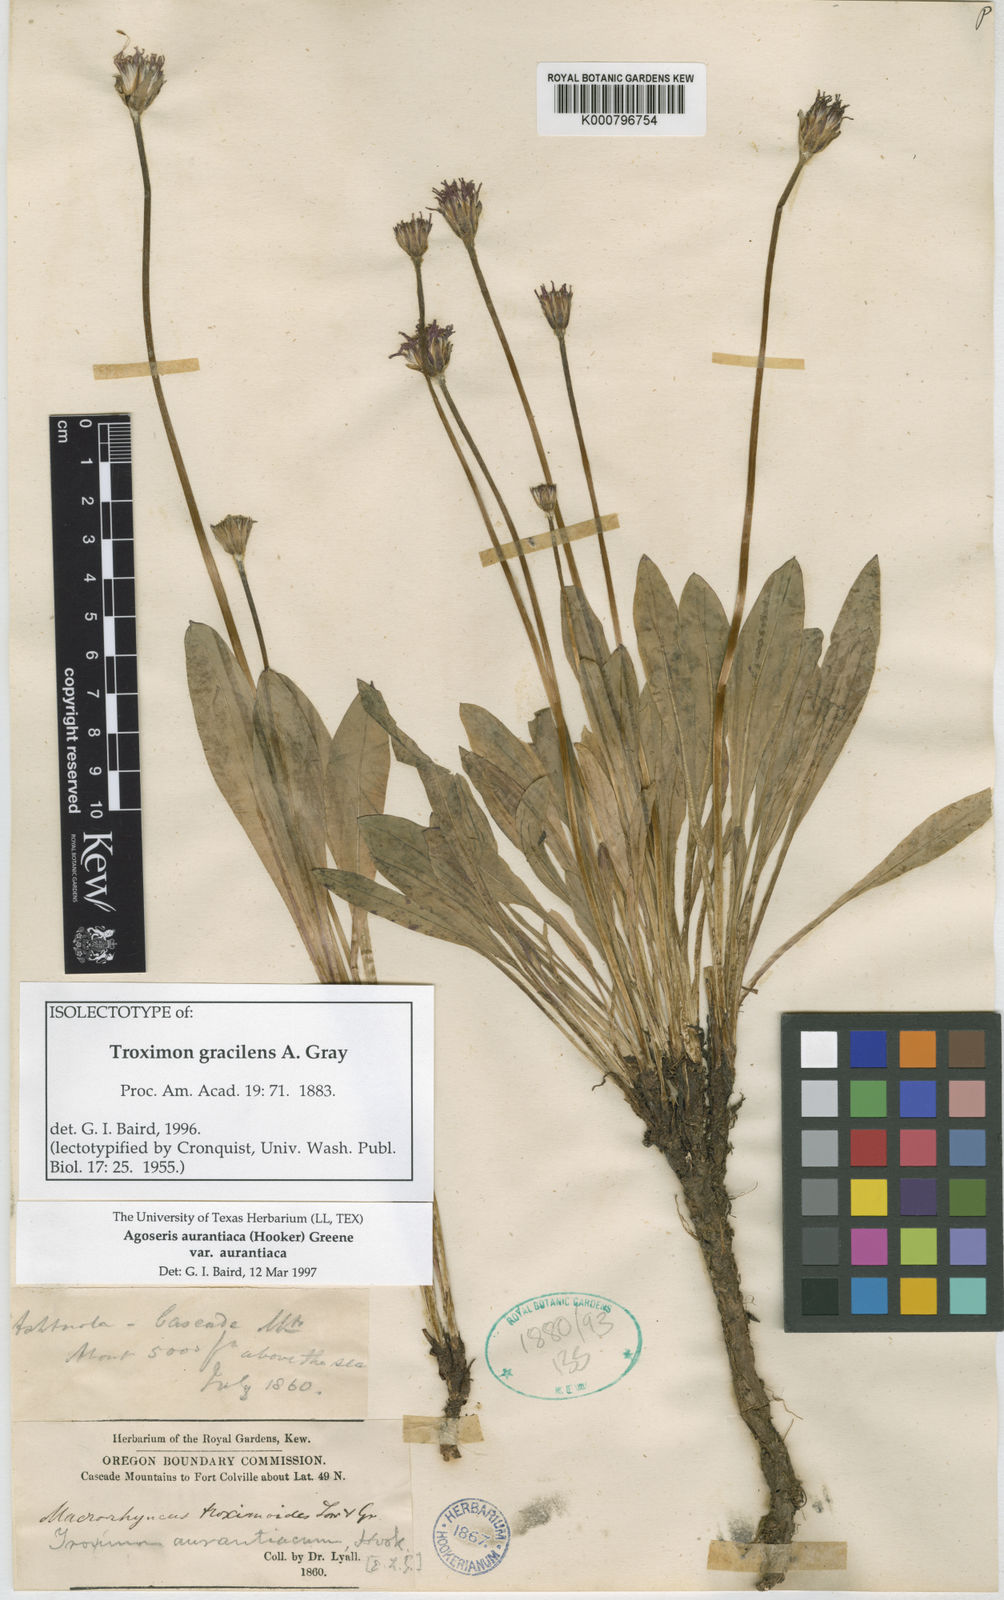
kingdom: Plantae
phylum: Tracheophyta
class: Magnoliopsida
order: Asterales
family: Asteraceae
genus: Agoseris
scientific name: Agoseris aurantiaca
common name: Mountain agoseris
